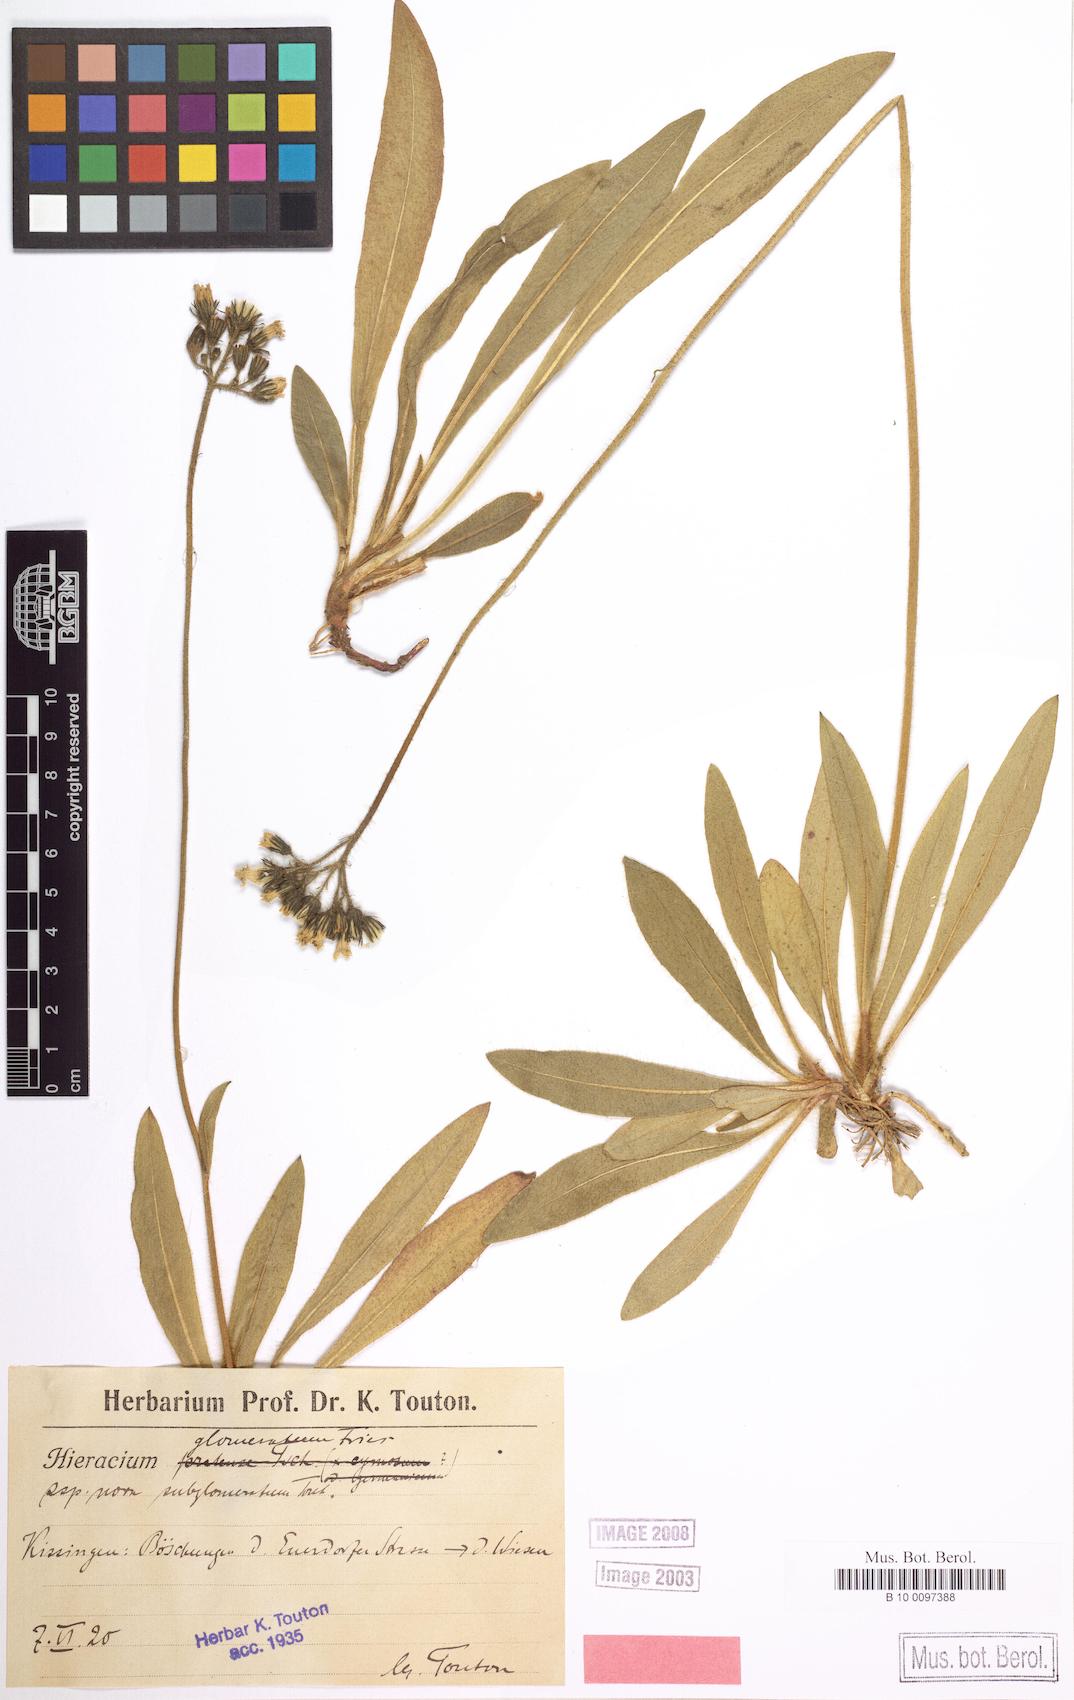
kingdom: Plantae
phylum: Tracheophyta
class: Magnoliopsida
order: Asterales
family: Asteraceae
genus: Pilosella
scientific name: Pilosella glomerata
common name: Queen devil hawkweed
